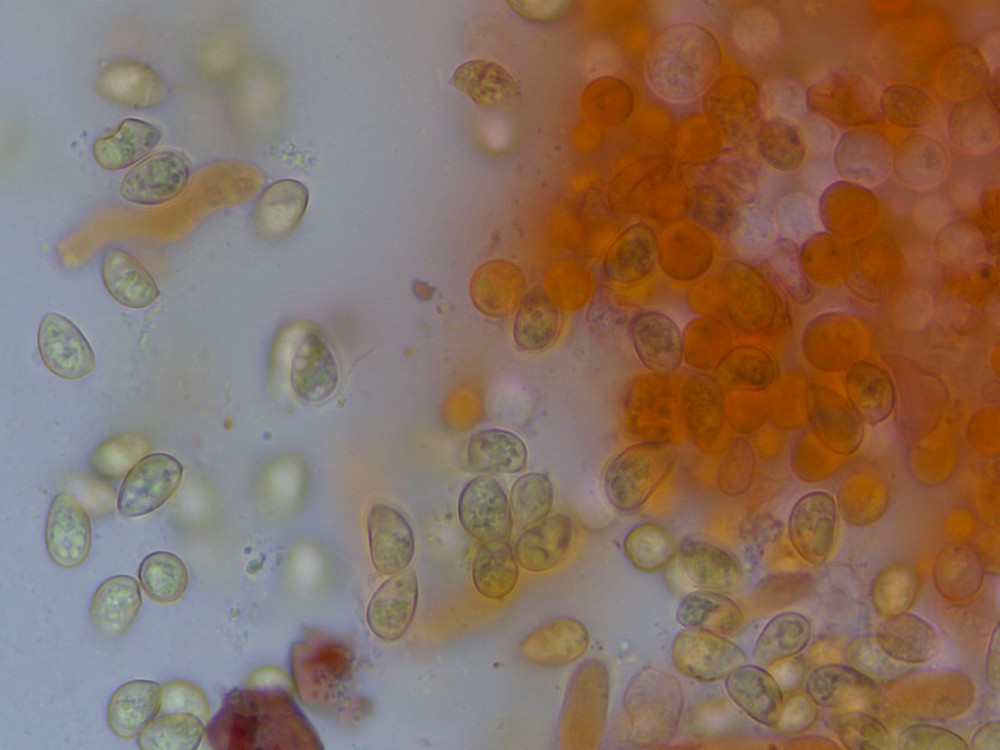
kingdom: Fungi
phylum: Basidiomycota
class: Agaricomycetes
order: Agaricales
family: Tubariaceae
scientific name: Tubariaceae
